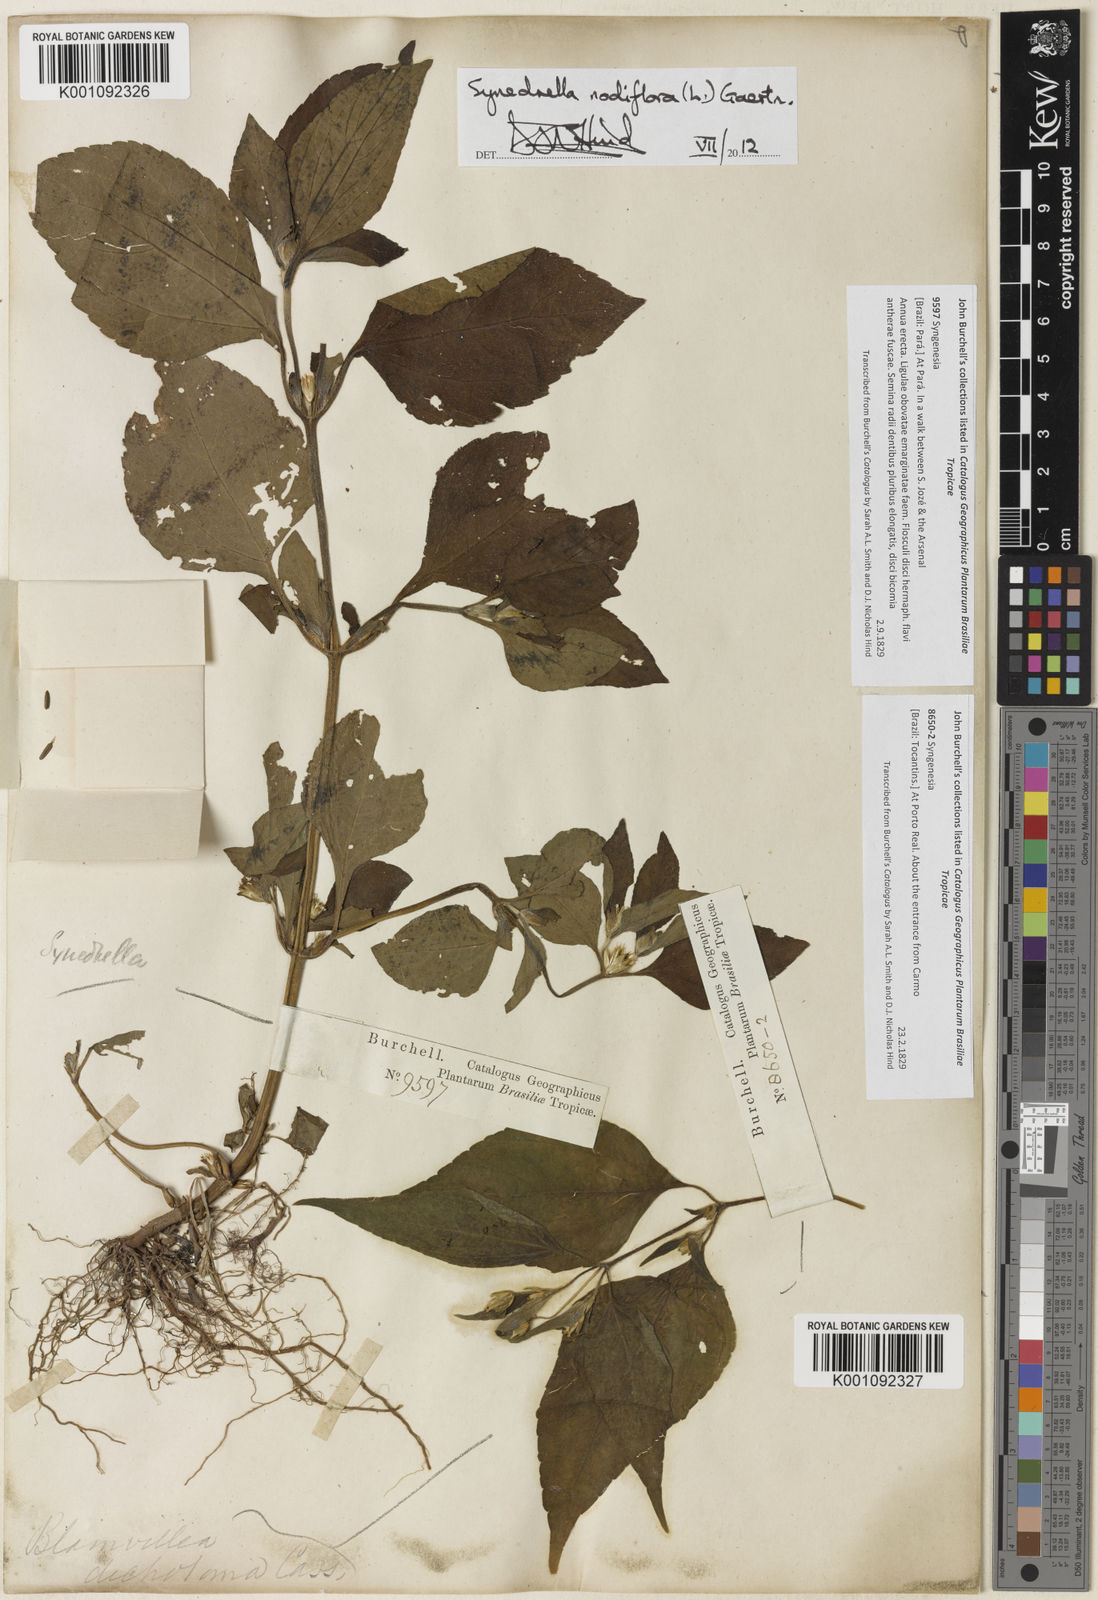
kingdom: Plantae
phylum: Tracheophyta
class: Magnoliopsida
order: Asterales
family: Asteraceae
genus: Blainvillea
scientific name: Blainvillea
